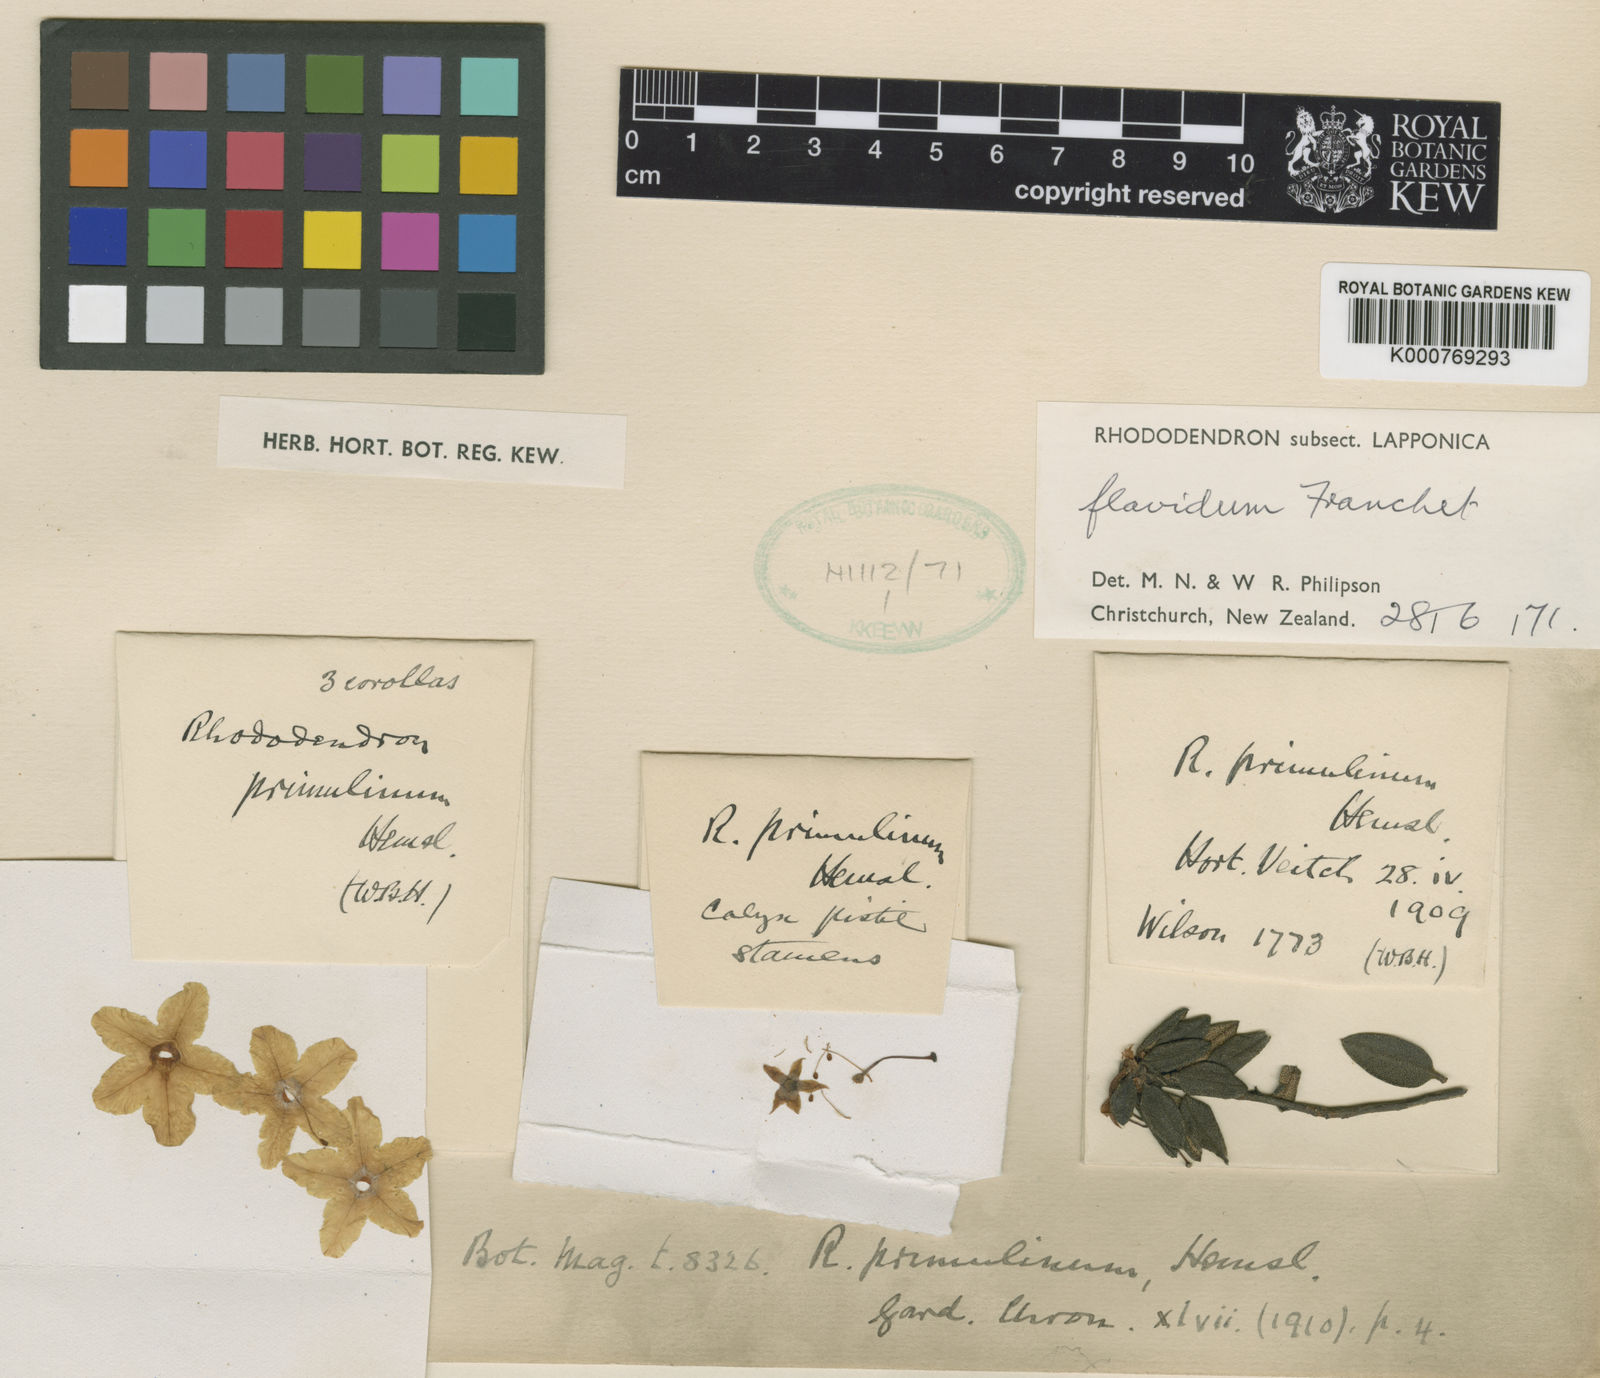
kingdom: Plantae
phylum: Tracheophyta
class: Magnoliopsida
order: Ericales
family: Ericaceae
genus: Rhododendron
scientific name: Rhododendron flavidum
